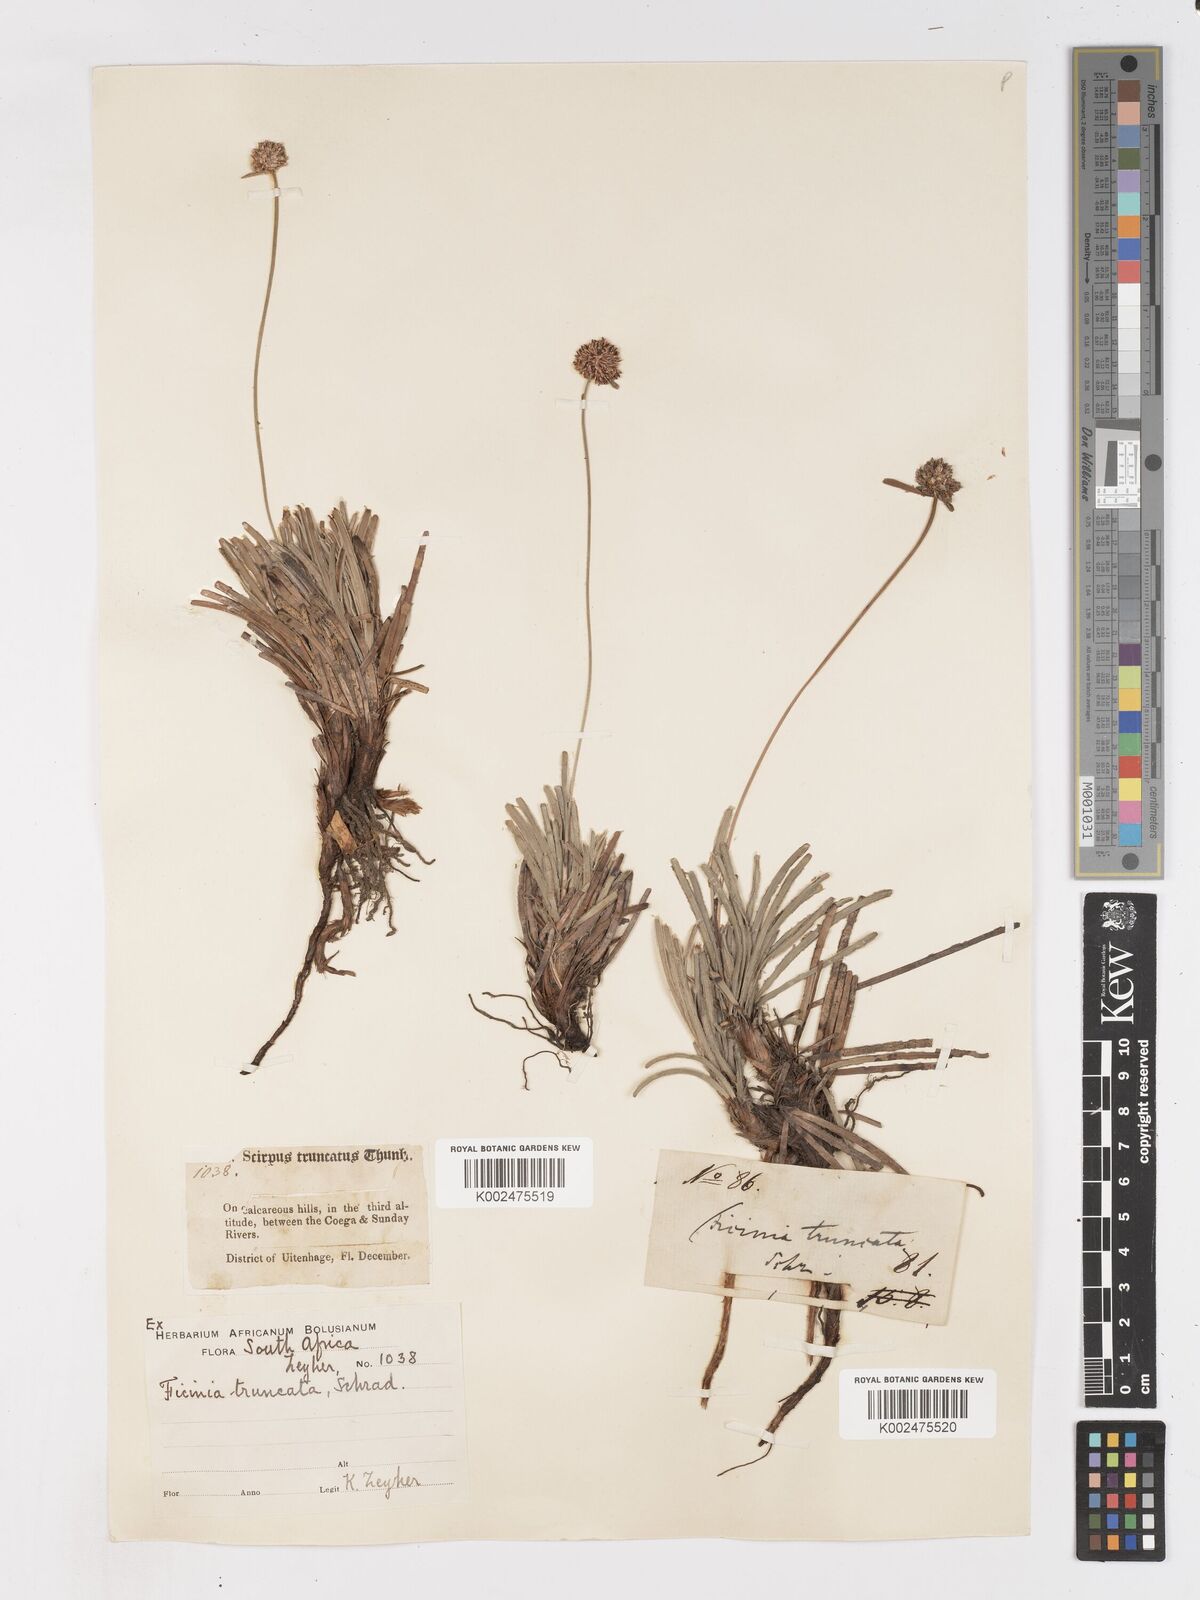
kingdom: Plantae
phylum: Tracheophyta
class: Liliopsida
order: Poales
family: Cyperaceae
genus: Ficinia
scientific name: Ficinia truncata
